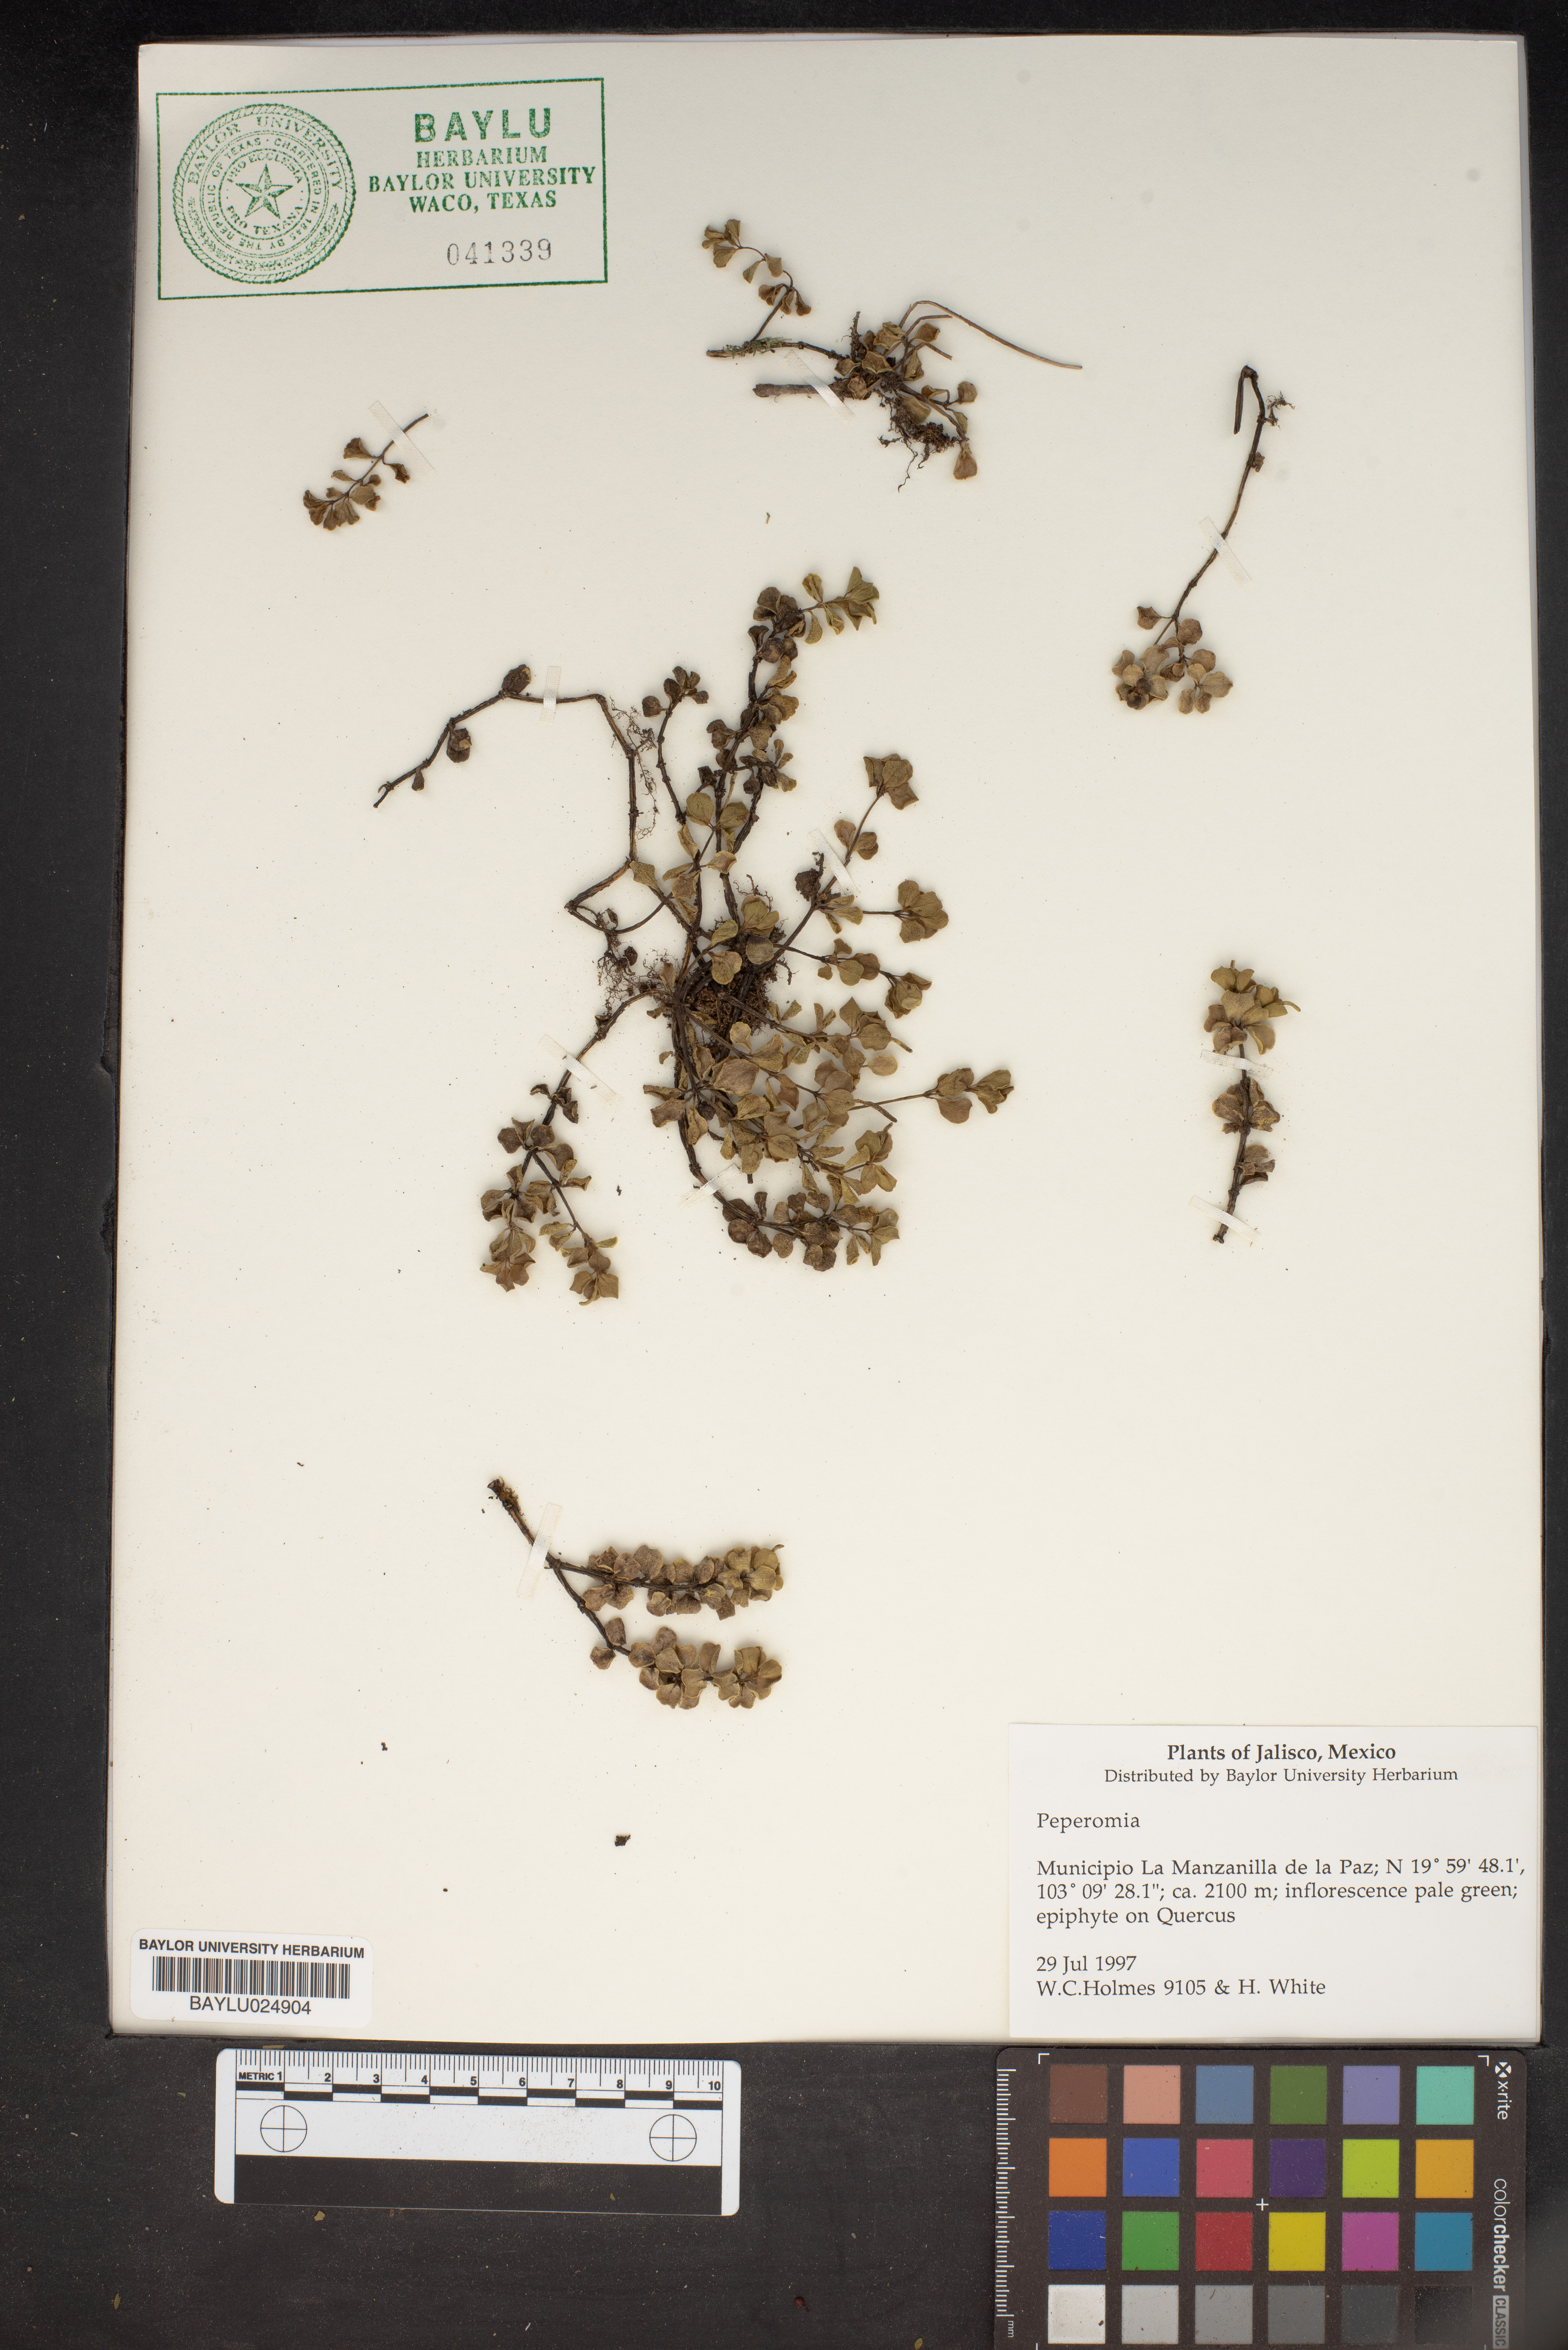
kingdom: Plantae
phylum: Tracheophyta
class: Magnoliopsida
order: Piperales
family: Piperaceae
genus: Peperomia
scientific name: Peperomia
